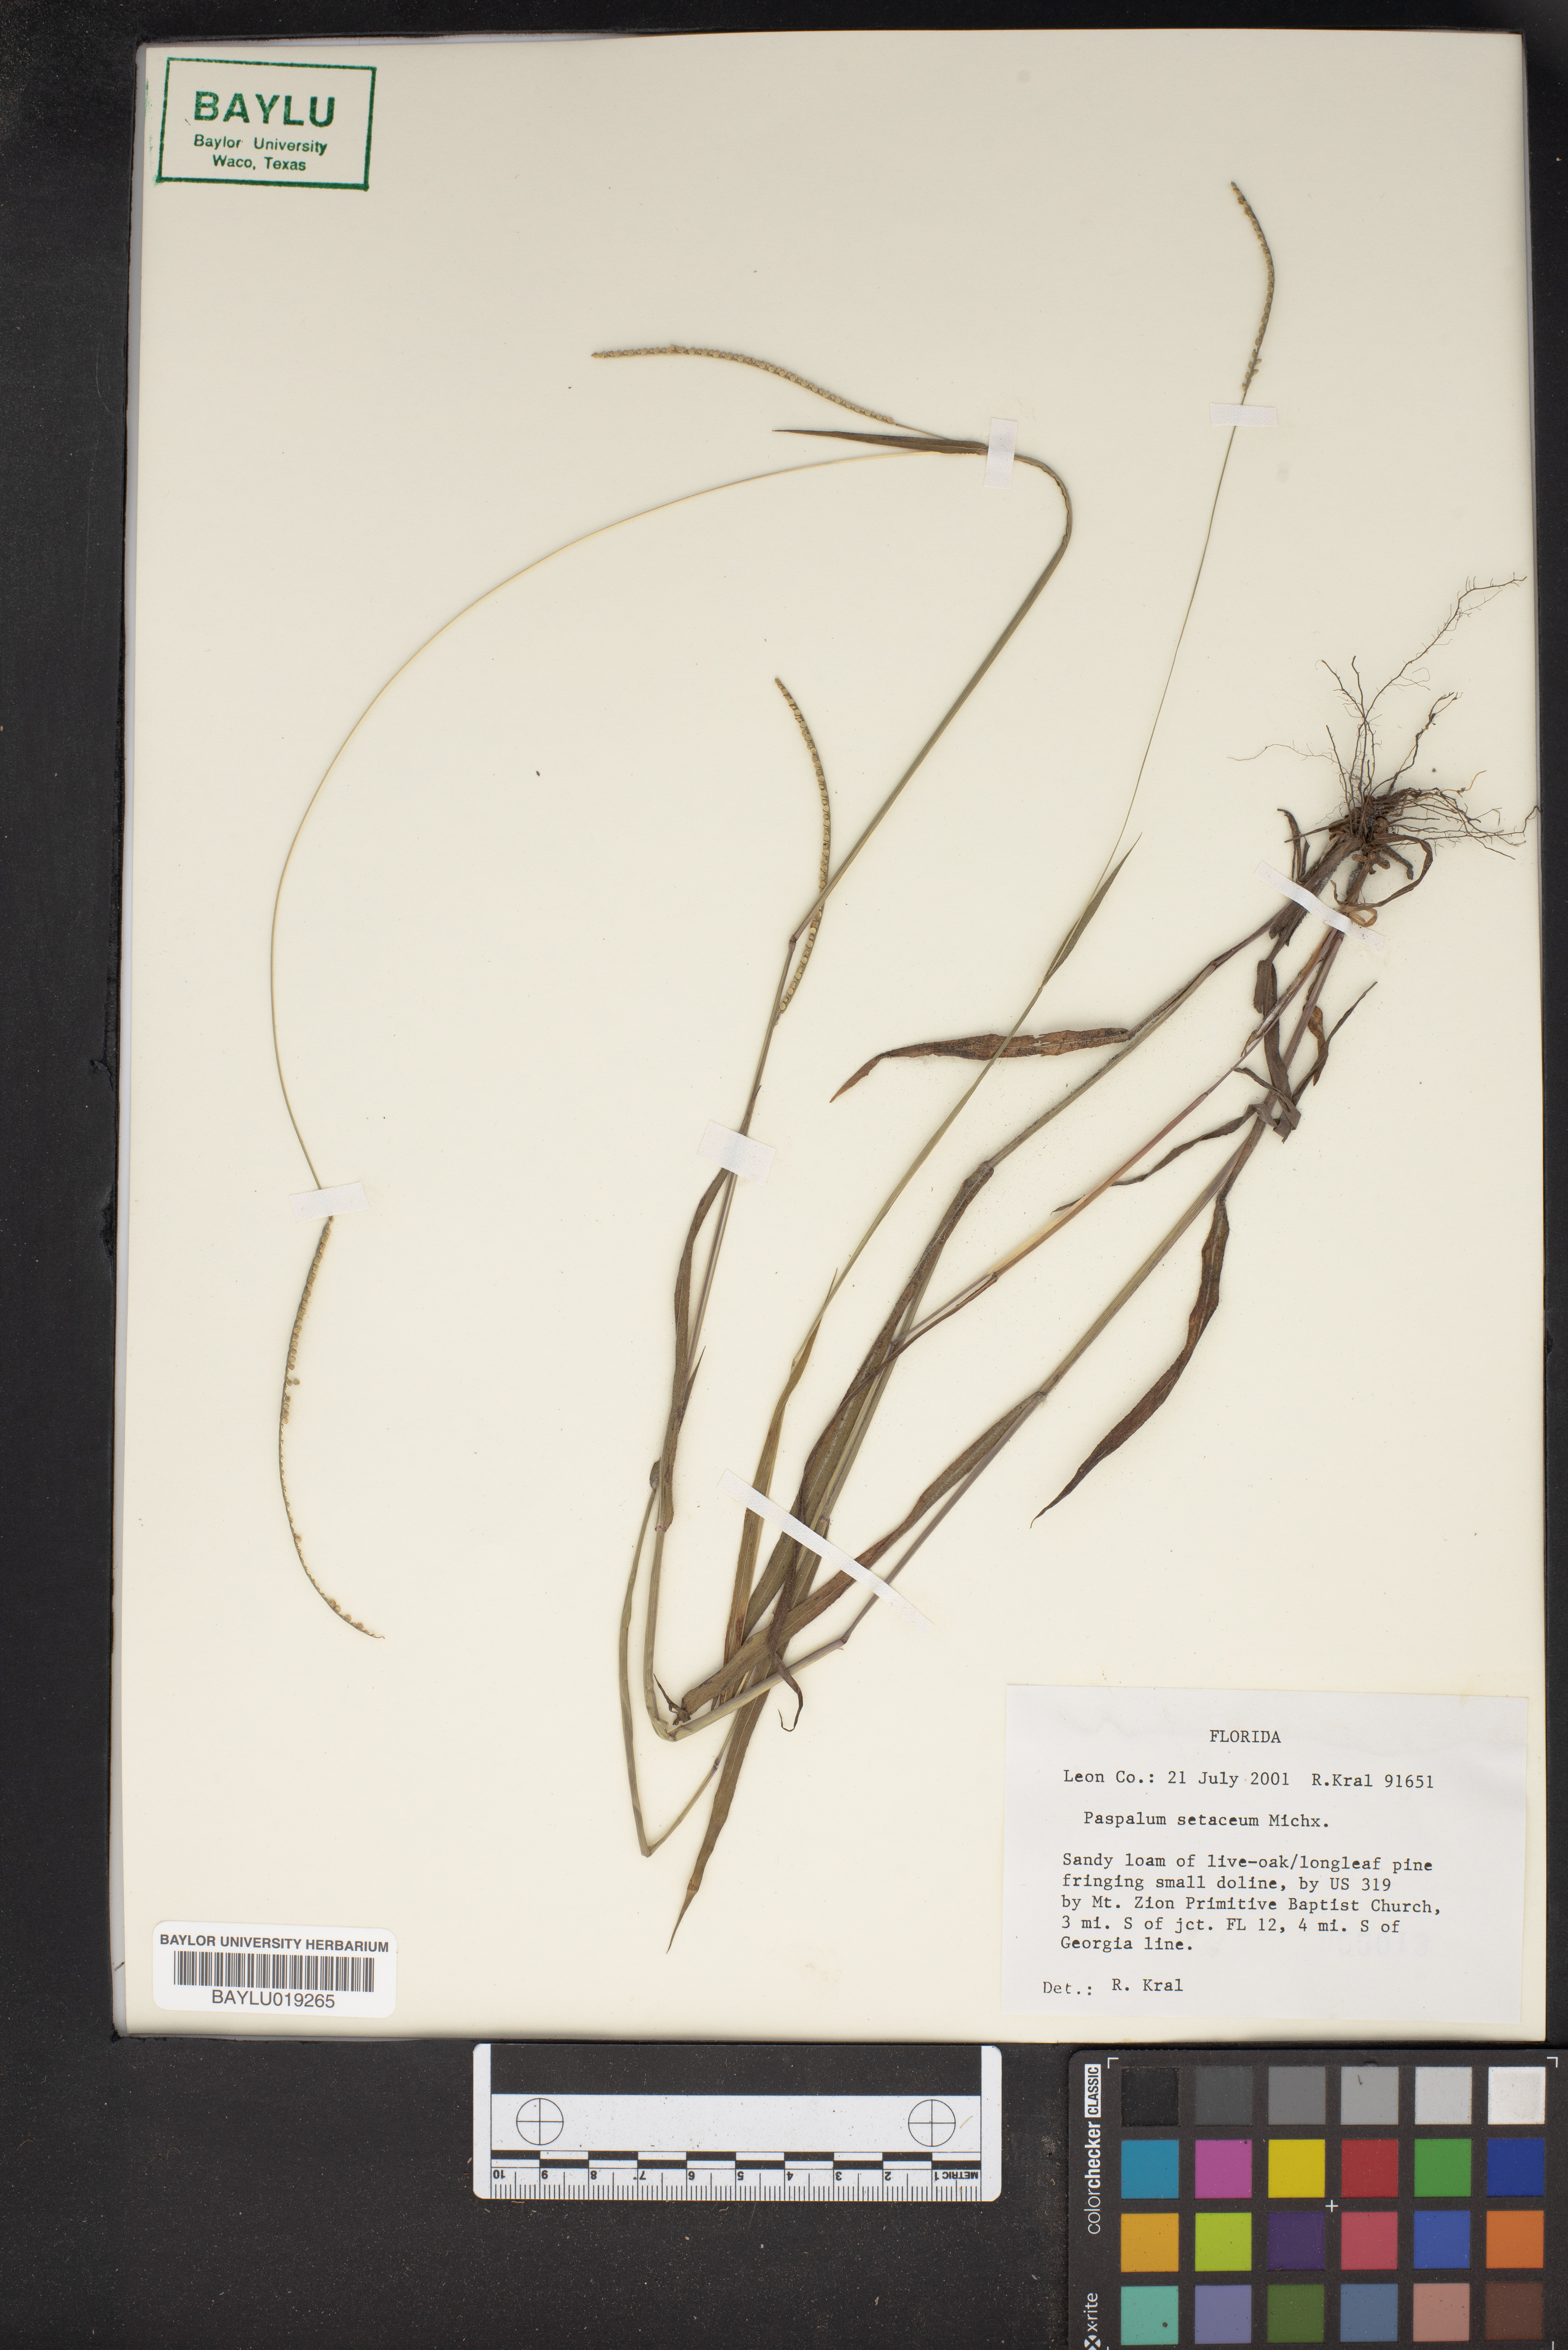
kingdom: Plantae
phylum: Tracheophyta
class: Liliopsida
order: Poales
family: Poaceae
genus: Paspalum
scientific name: Paspalum setaceum
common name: Slender paspalum
